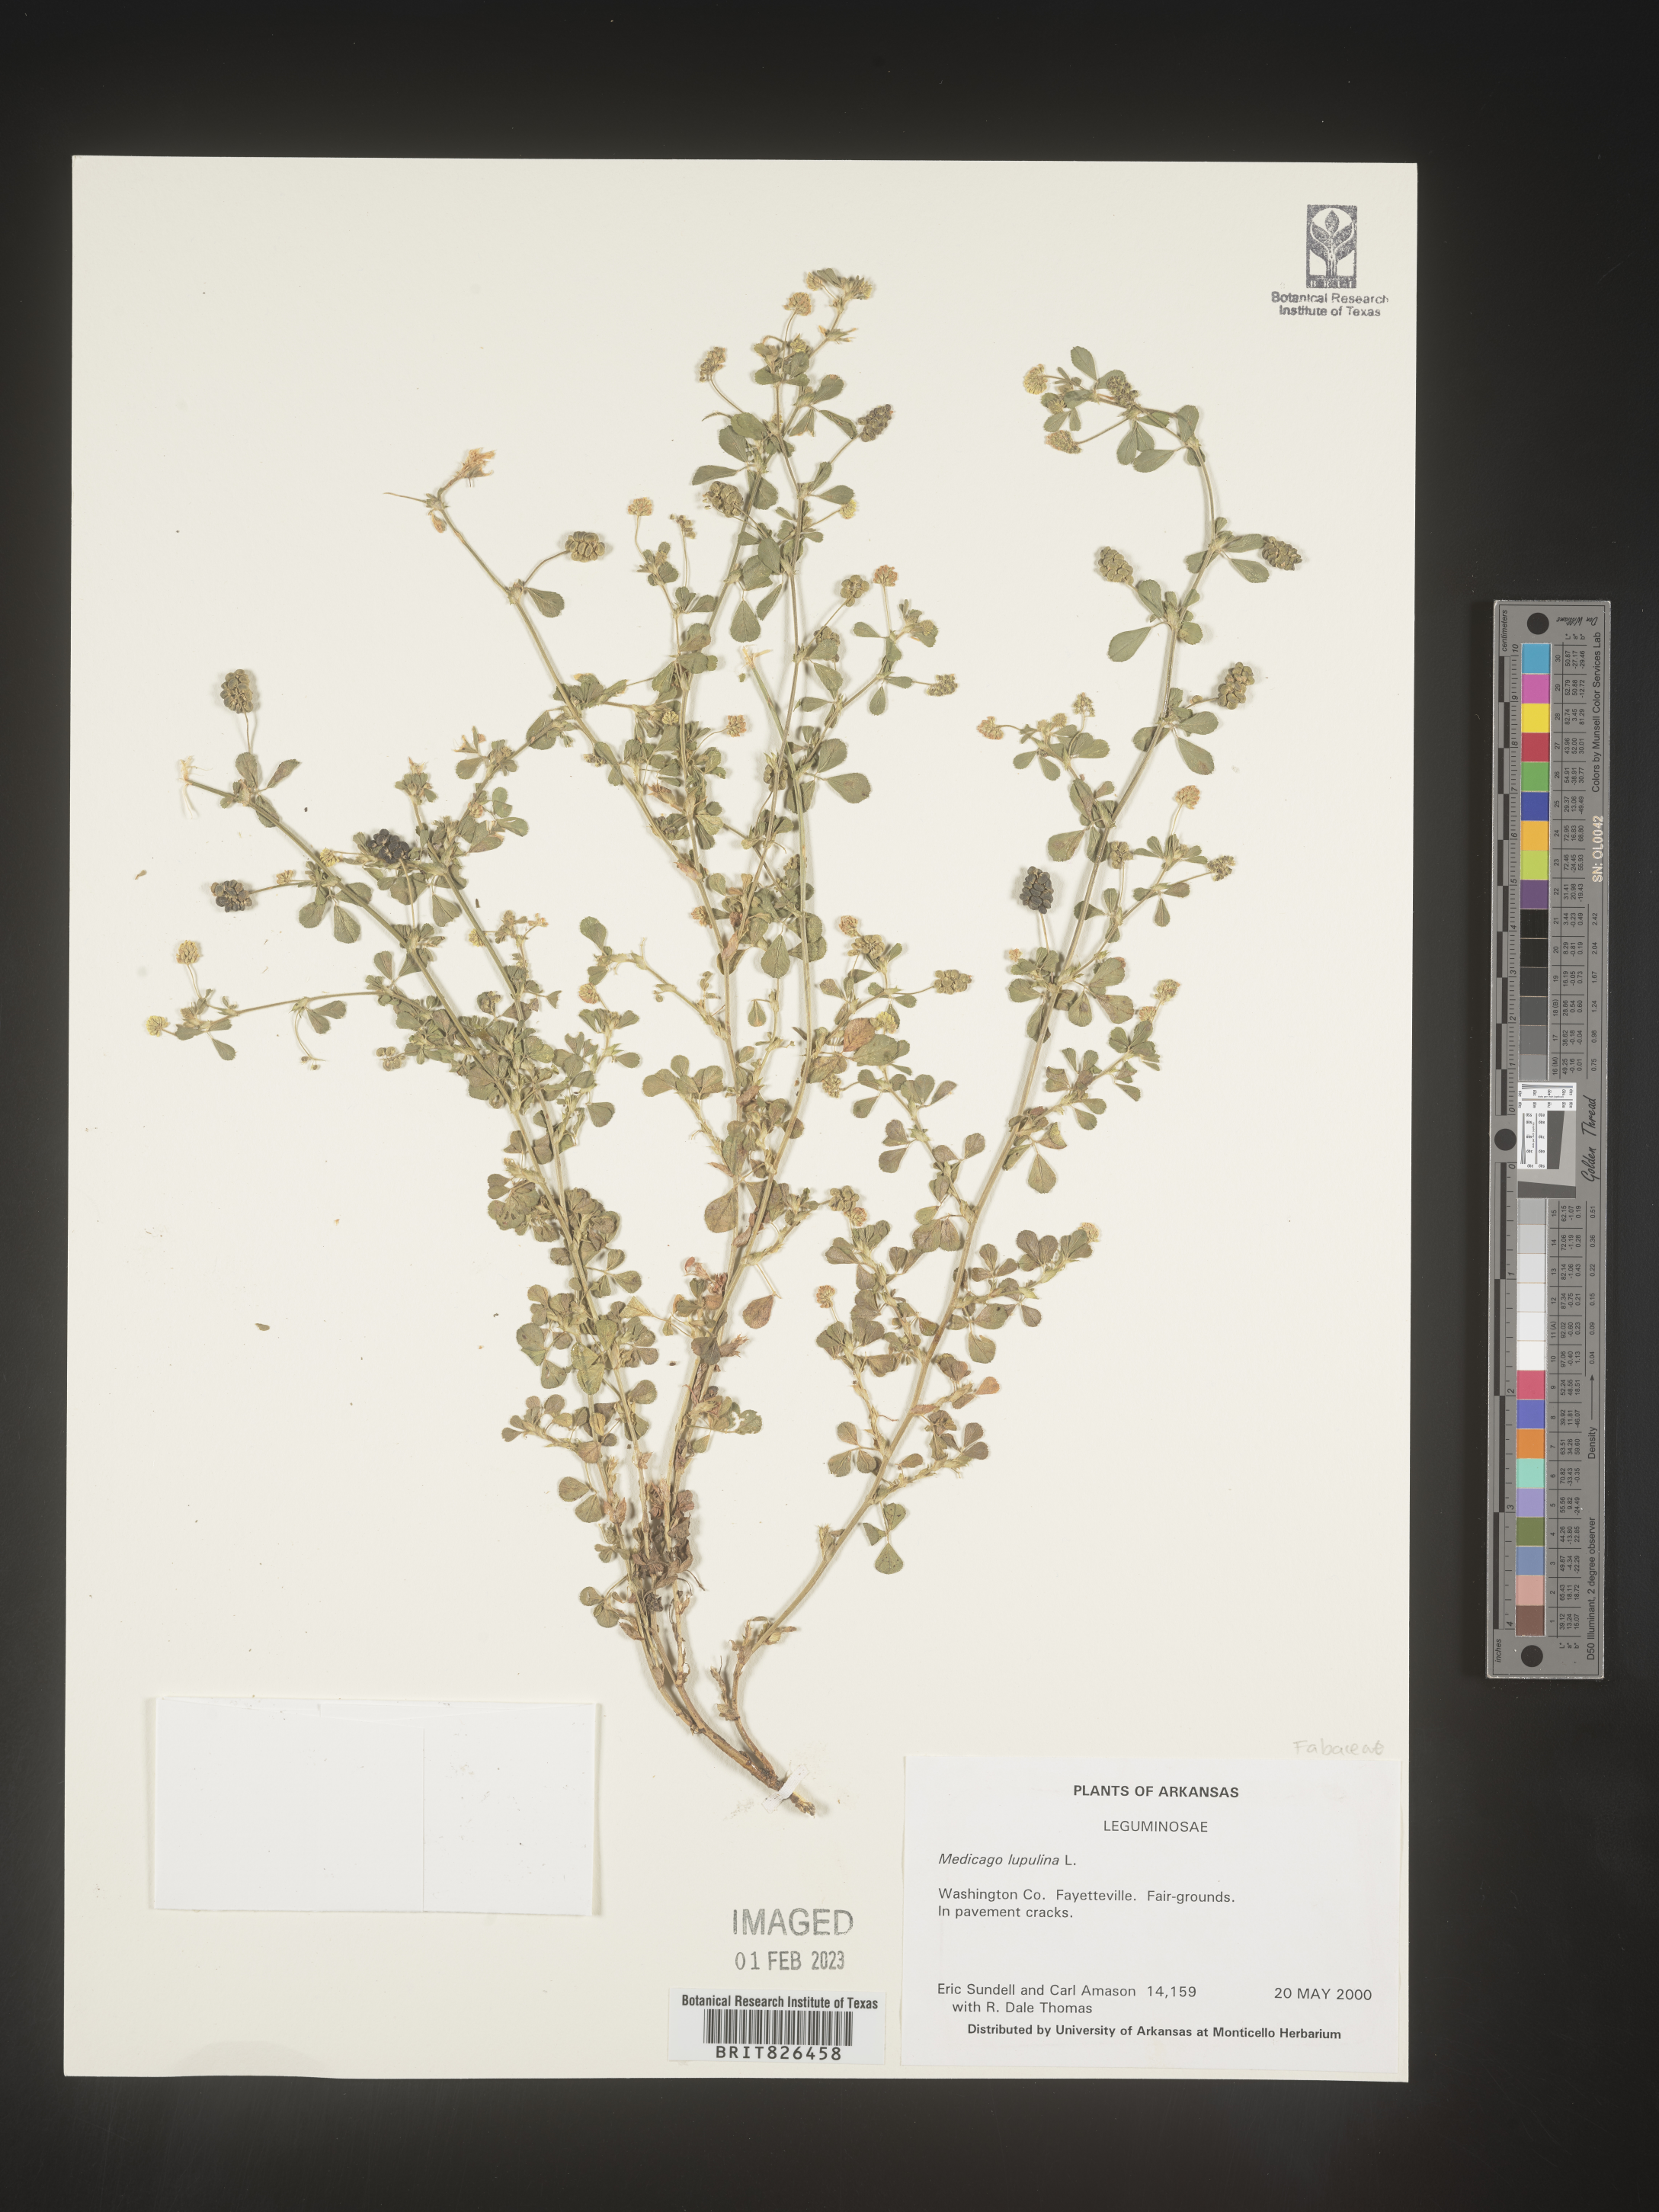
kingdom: Plantae
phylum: Tracheophyta
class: Magnoliopsida
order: Fabales
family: Fabaceae
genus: Medicago
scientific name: Medicago lupulina
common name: Black medick
